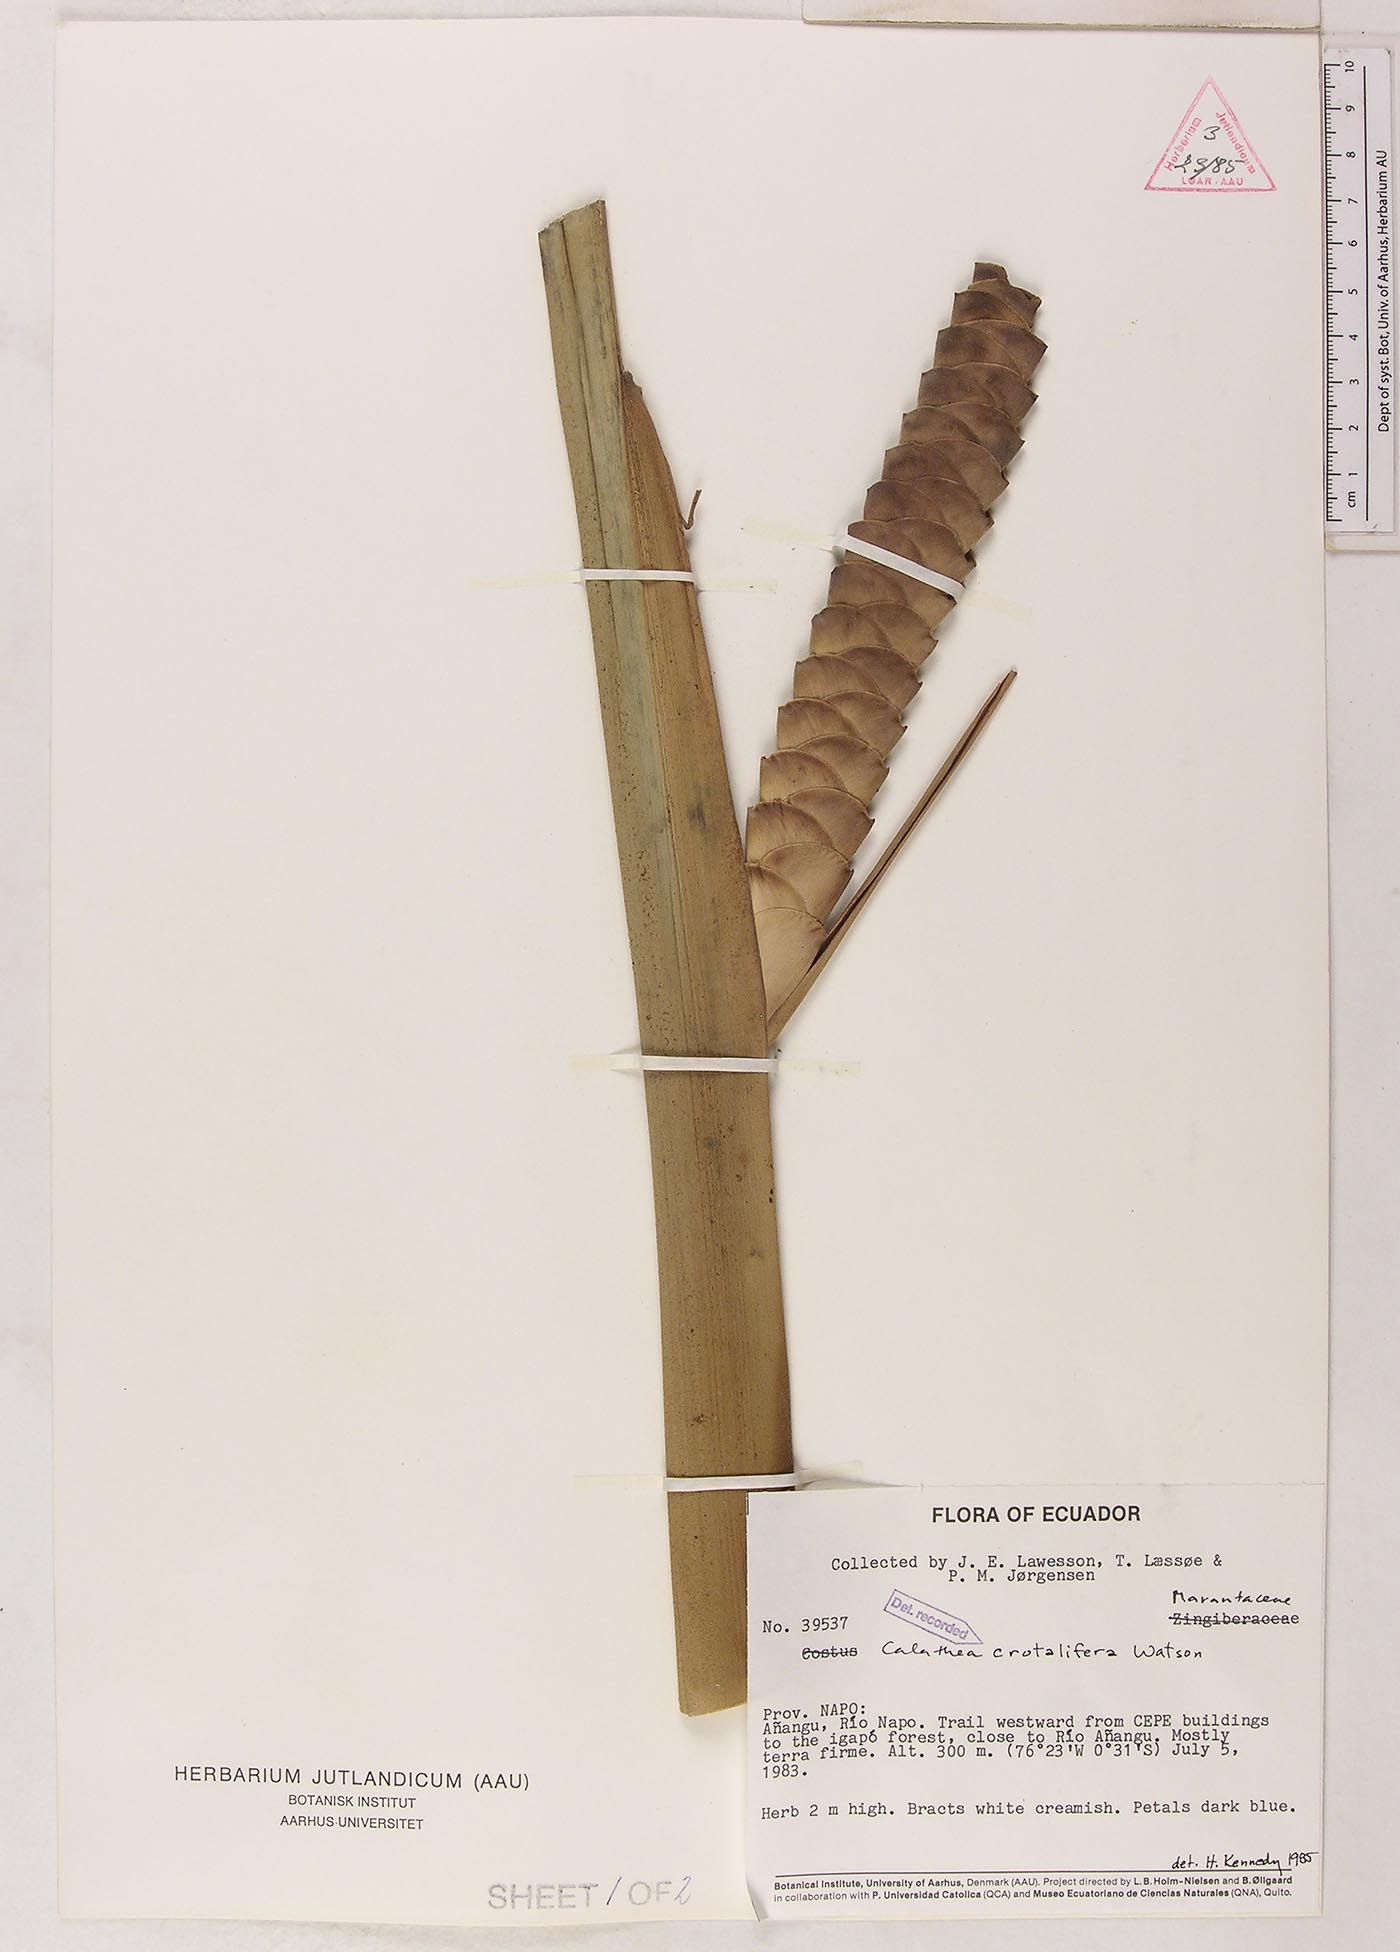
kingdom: Plantae
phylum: Tracheophyta
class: Liliopsida
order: Zingiberales
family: Marantaceae
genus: Calathea
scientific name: Calathea
